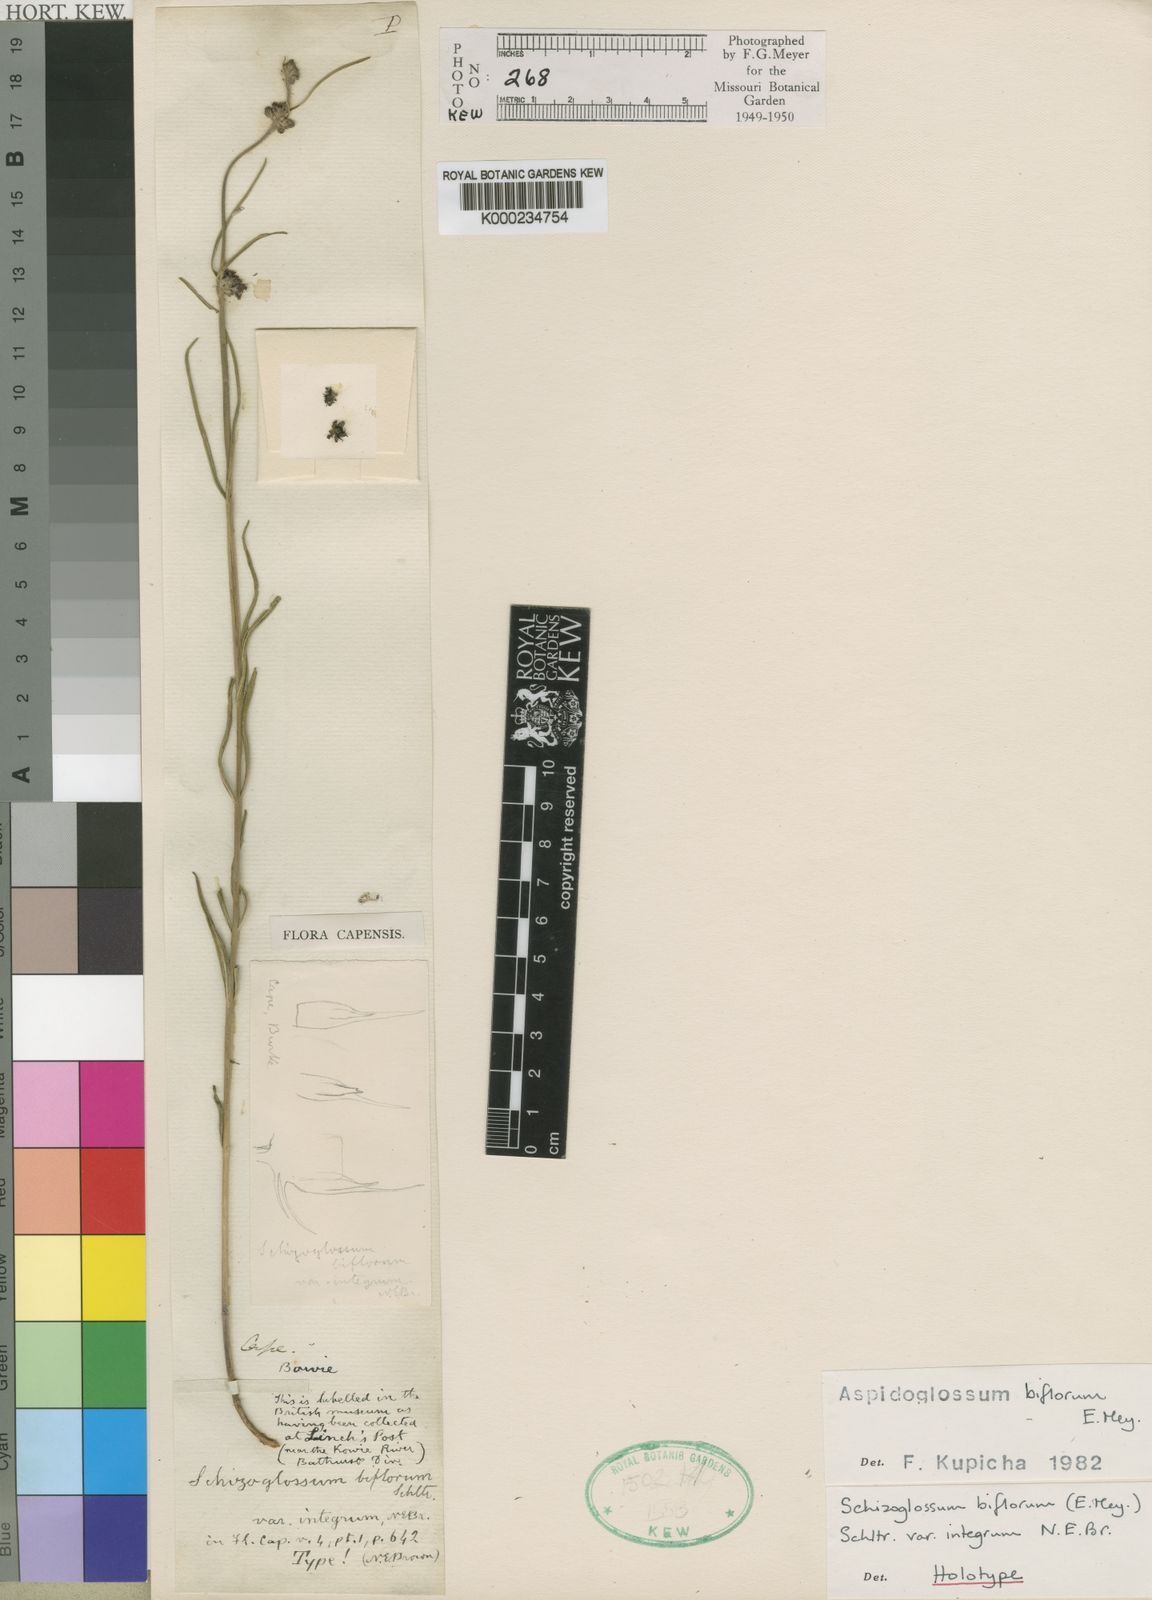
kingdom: Plantae
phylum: Tracheophyta
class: Magnoliopsida
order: Gentianales
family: Apocynaceae
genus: Aspidoglossum
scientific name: Aspidoglossum biflorum
